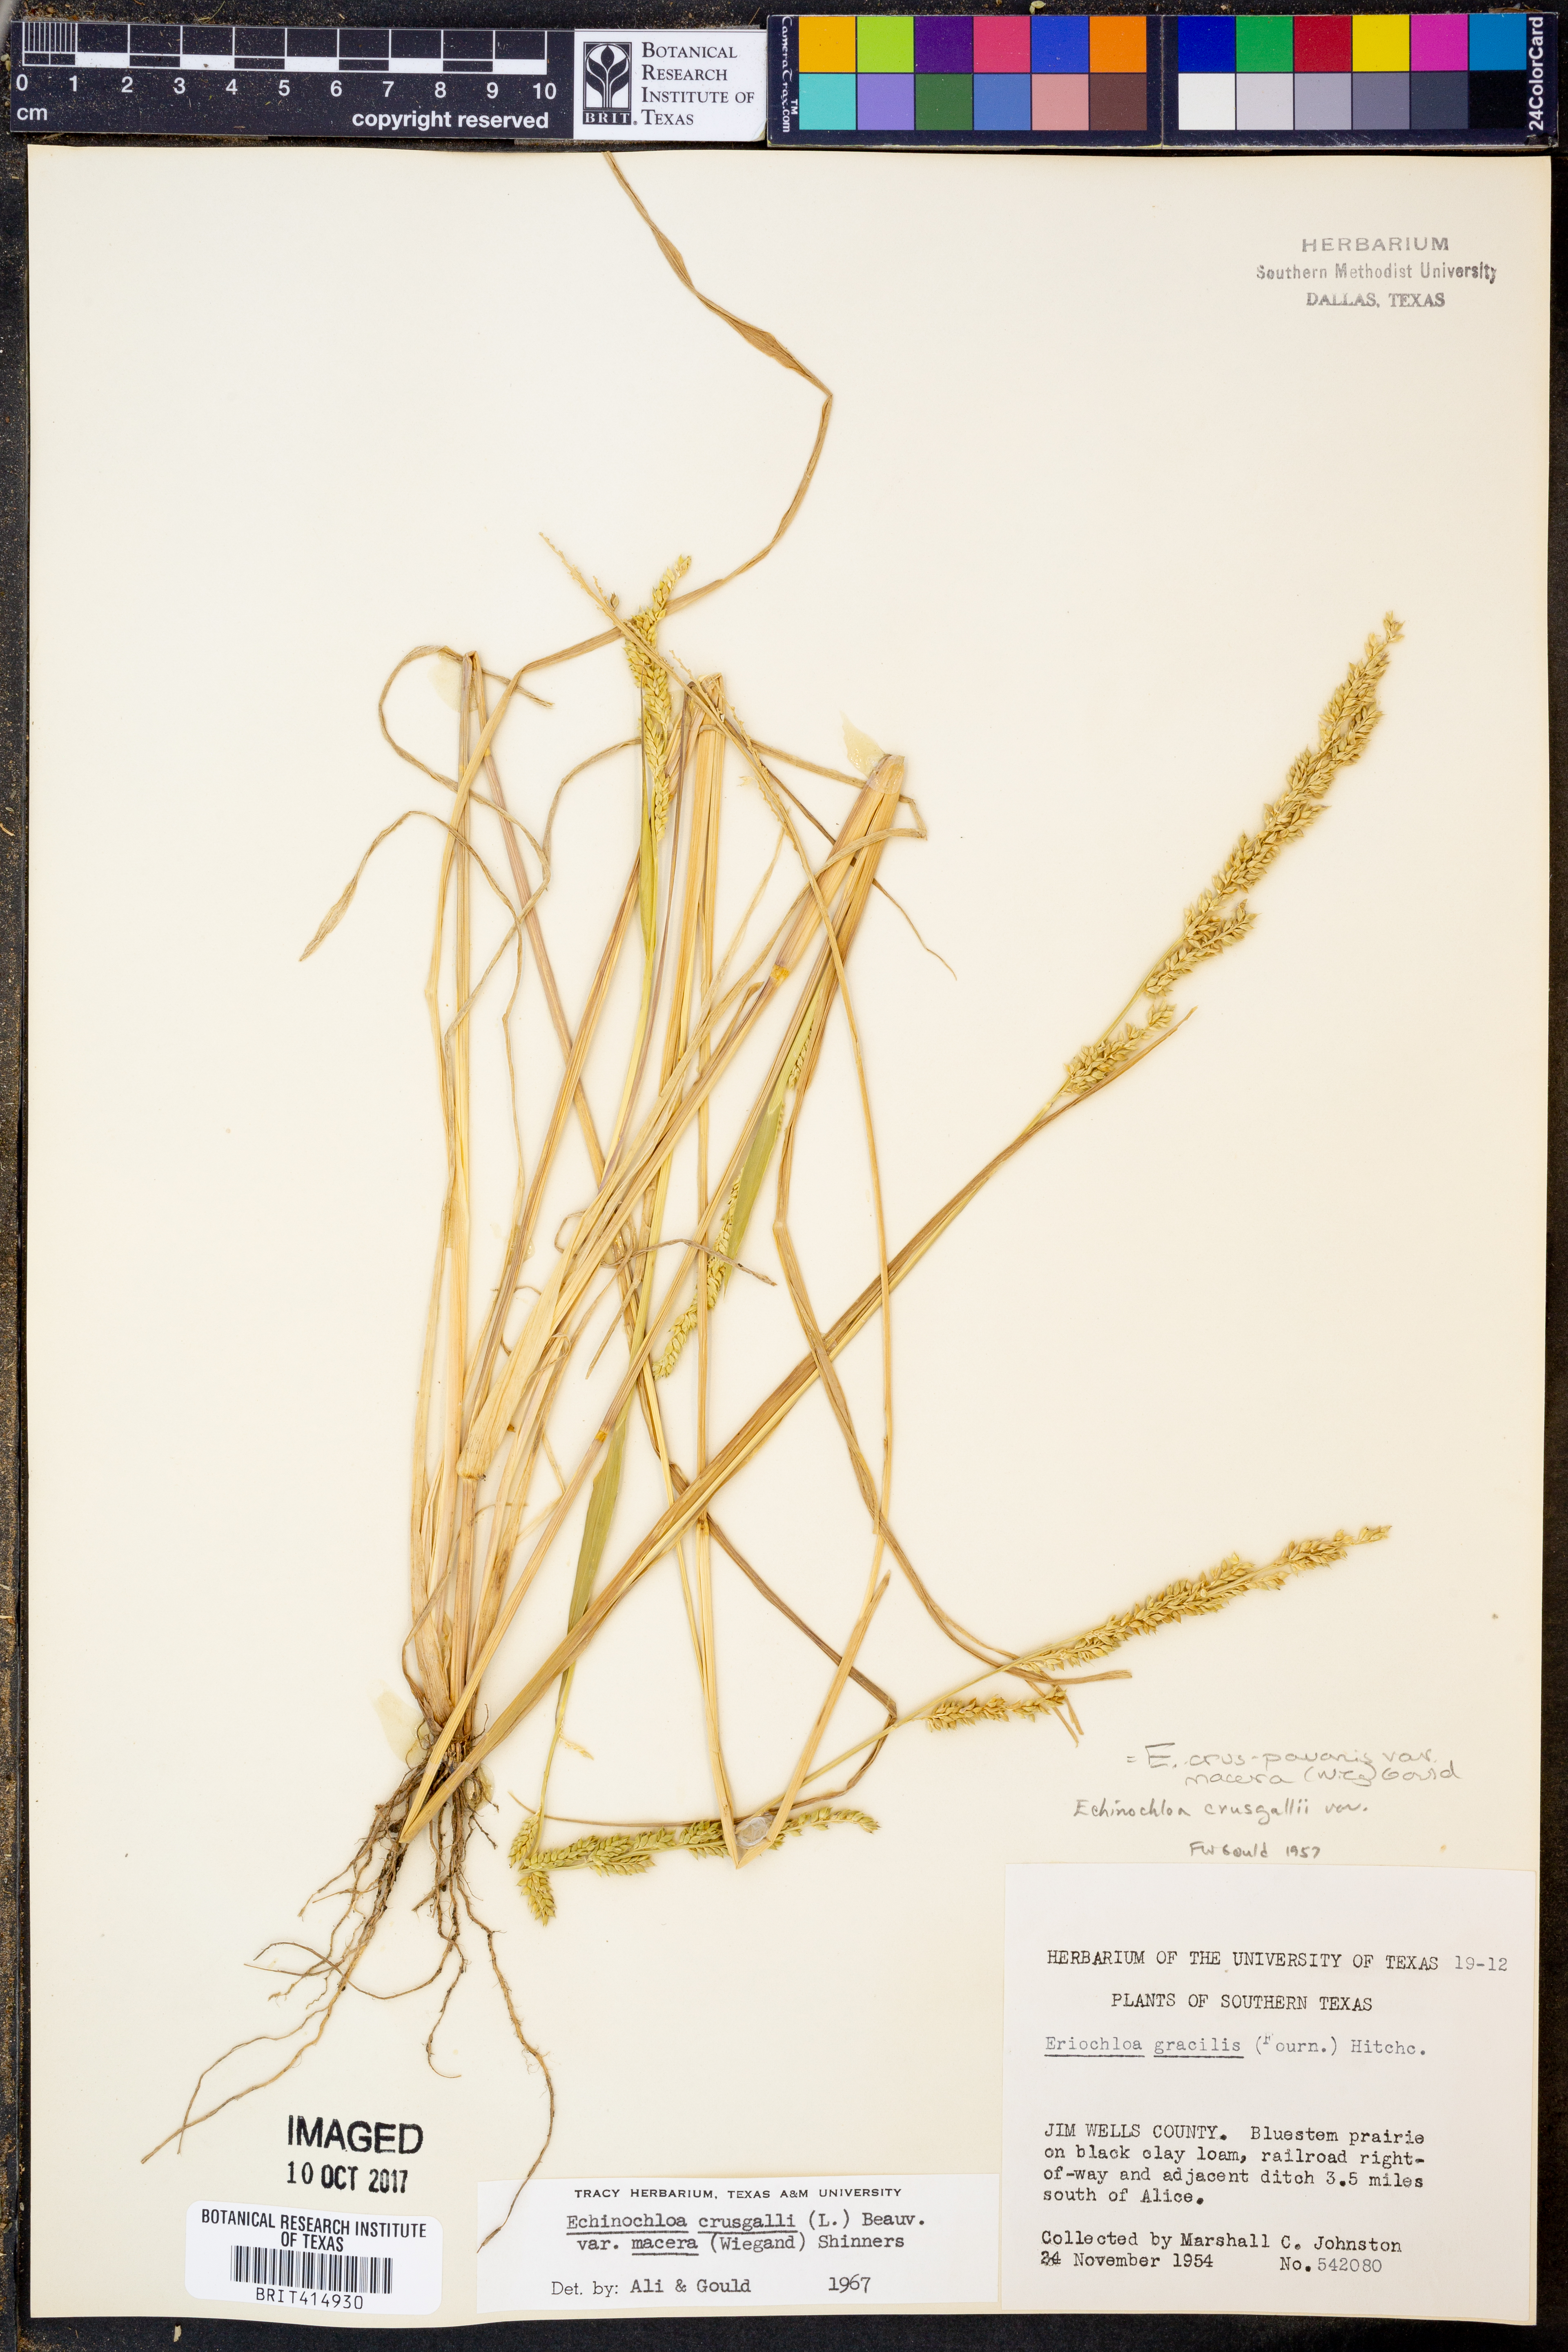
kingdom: Plantae
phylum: Tracheophyta
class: Liliopsida
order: Poales
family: Poaceae
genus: Echinochloa
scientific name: Echinochloa
